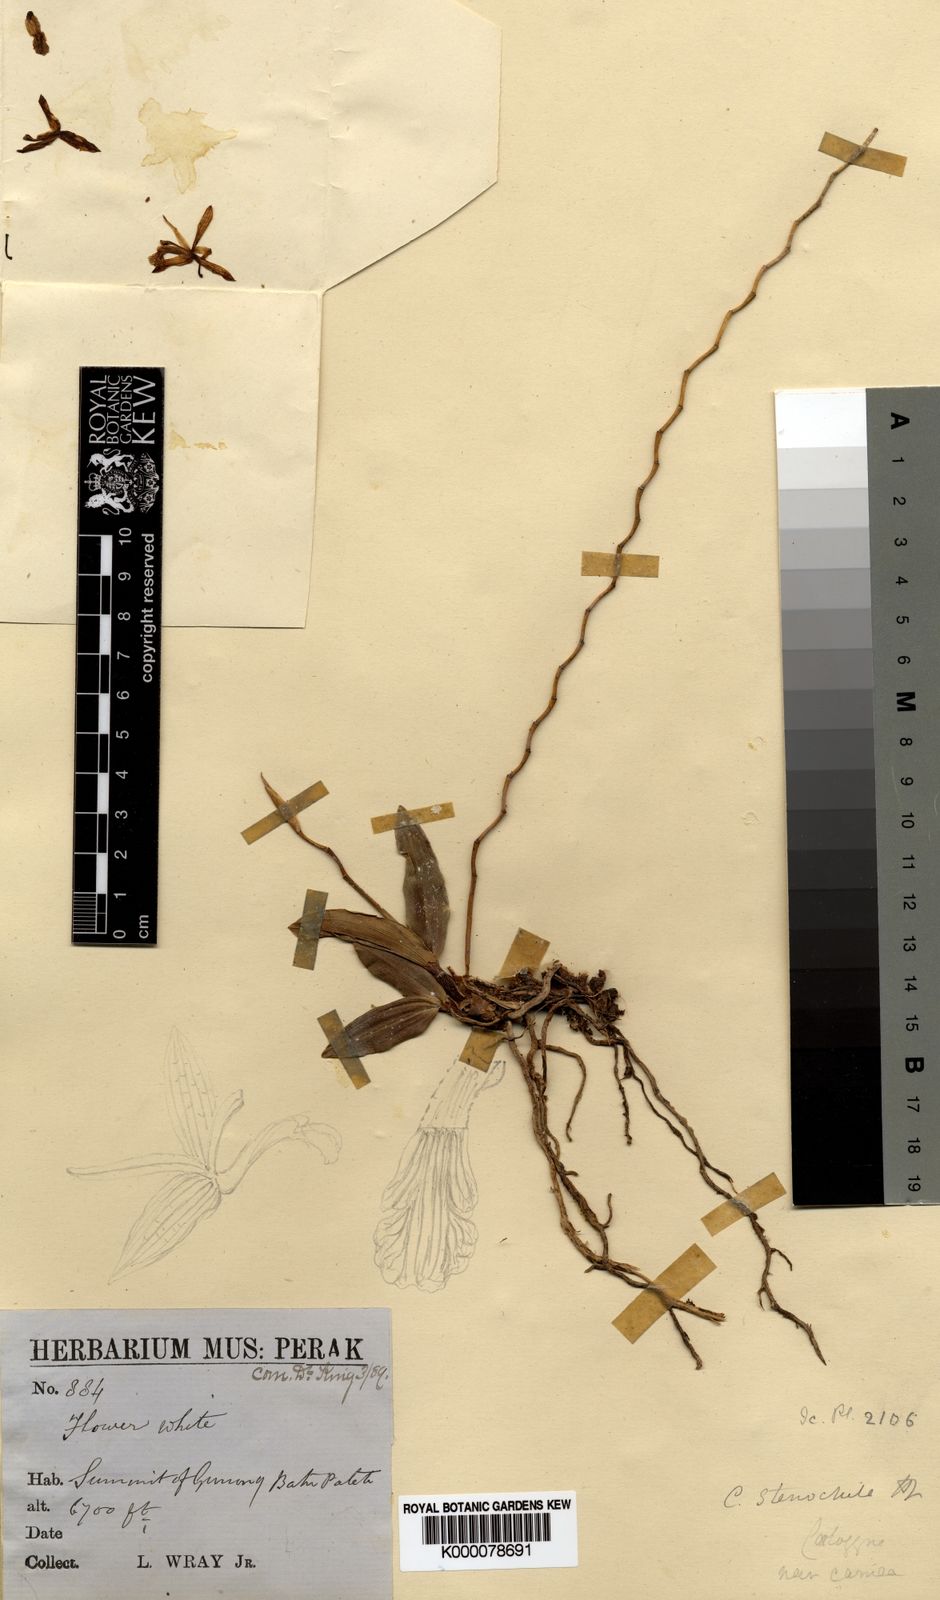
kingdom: Plantae
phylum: Tracheophyta
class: Liliopsida
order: Asparagales
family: Orchidaceae
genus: Coelogyne
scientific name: Coelogyne stenochila
